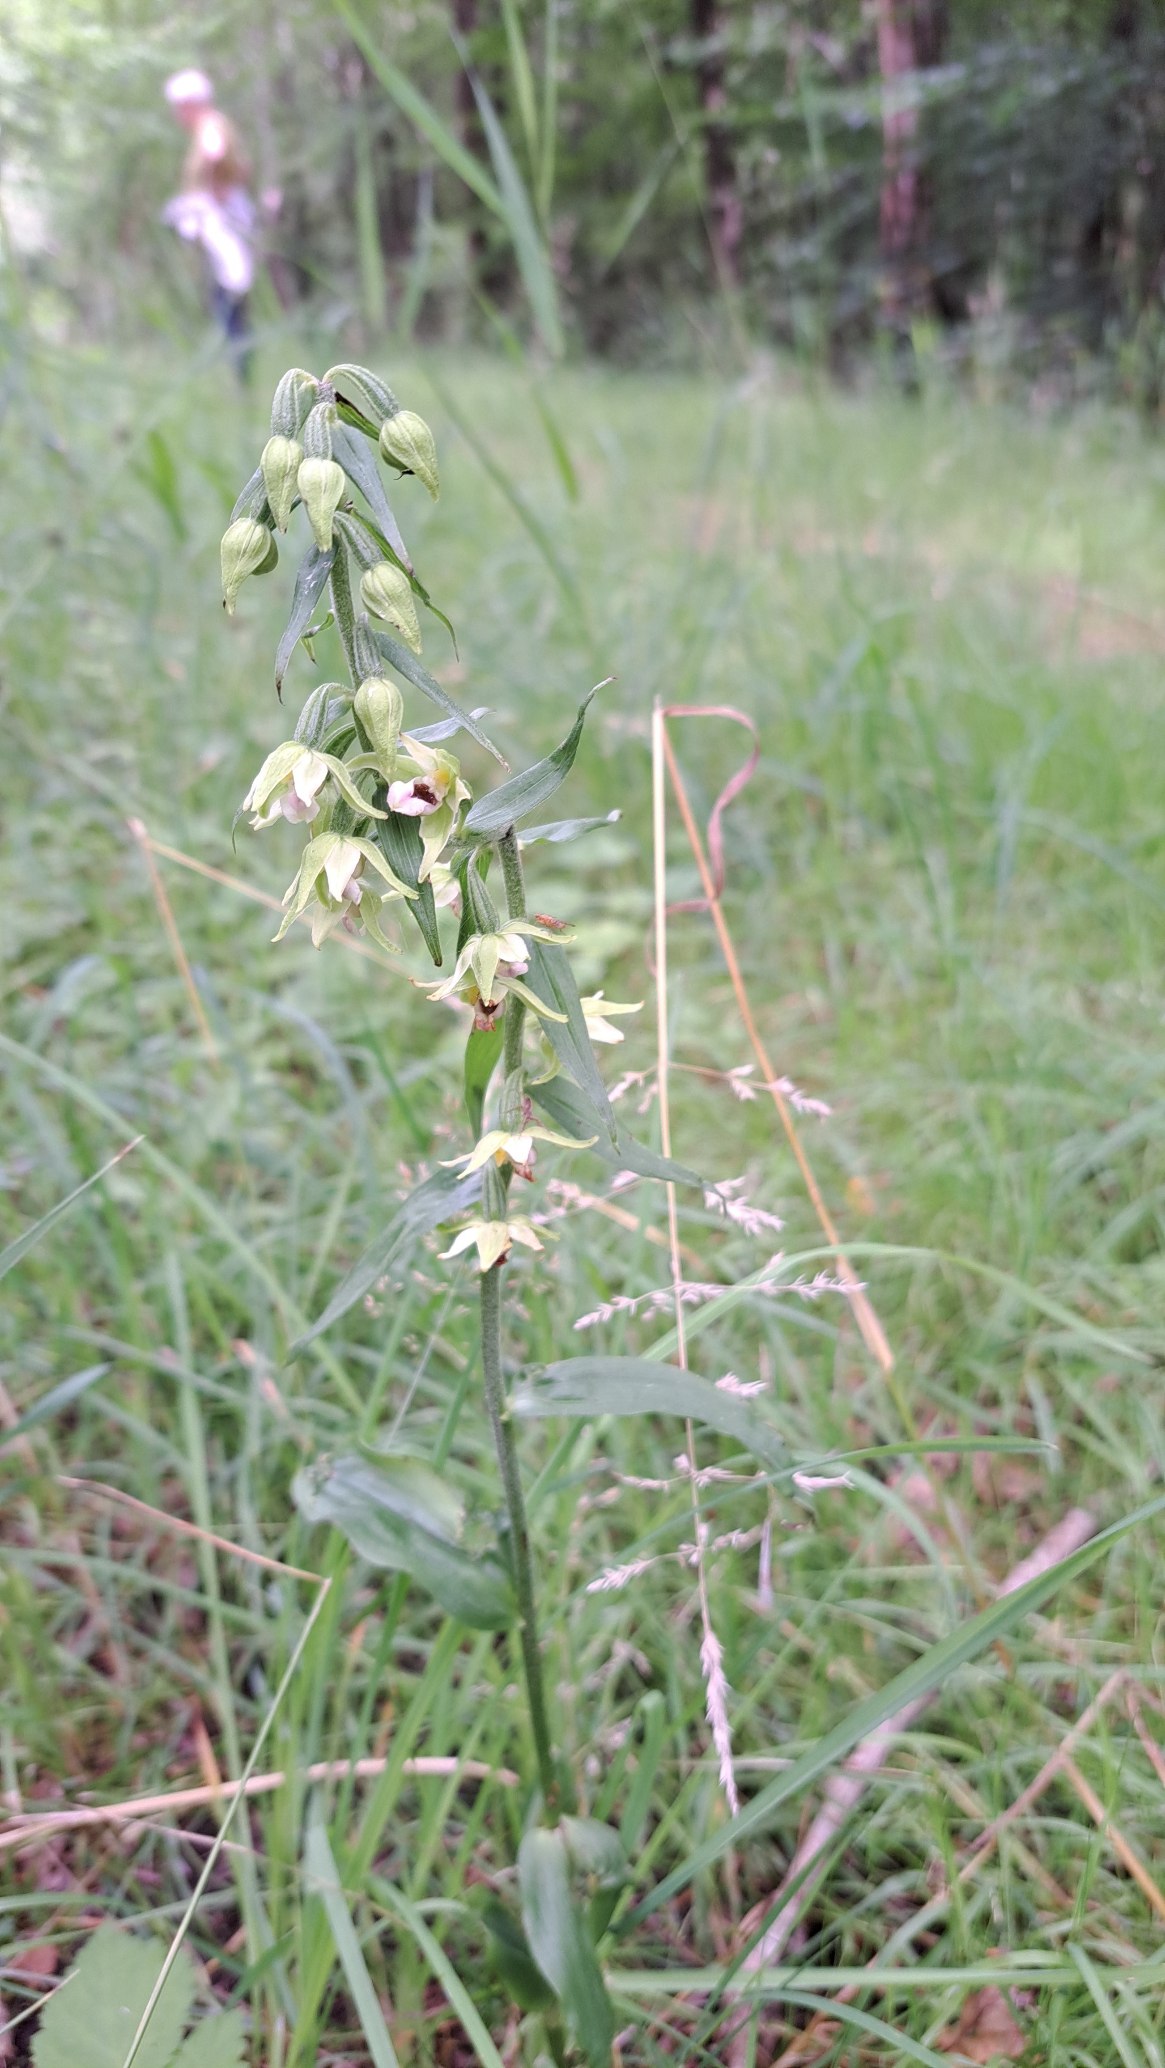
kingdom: Plantae
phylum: Tracheophyta
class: Liliopsida
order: Asparagales
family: Orchidaceae
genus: Epipactis
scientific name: Epipactis helleborine
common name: Skov-hullæbe
